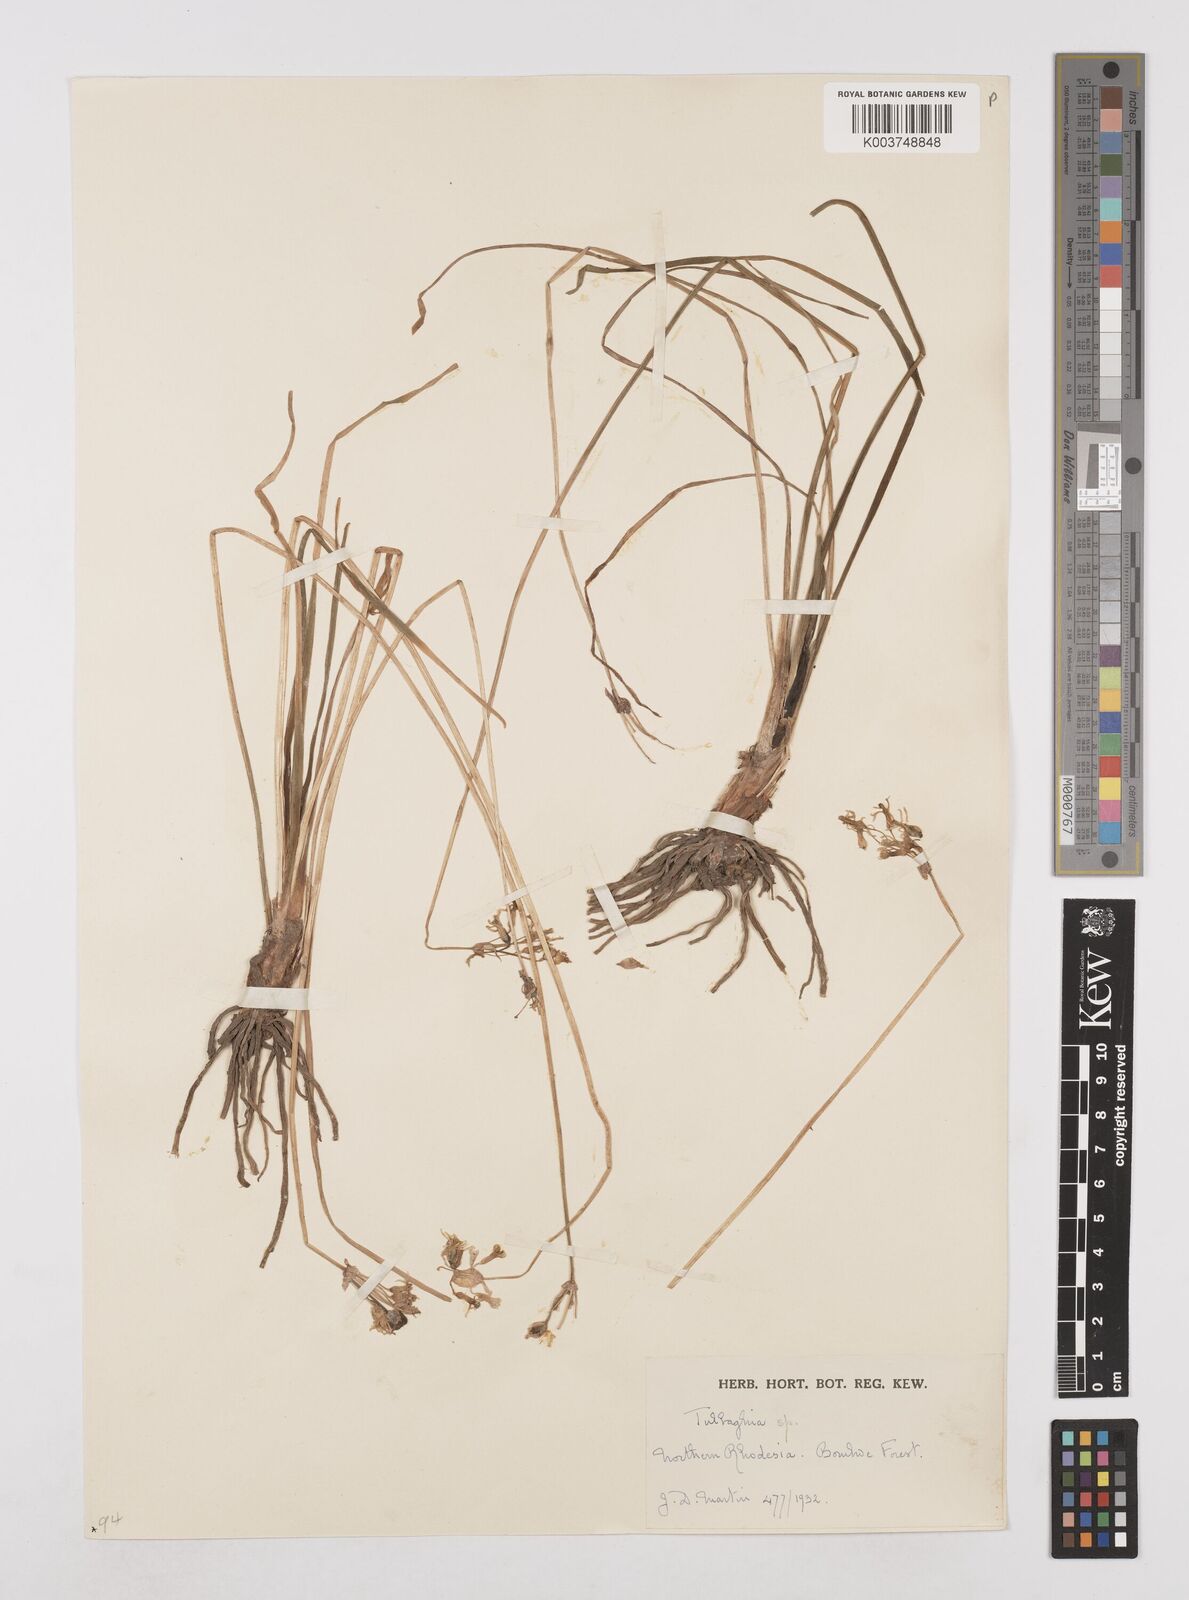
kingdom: Plantae
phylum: Tracheophyta
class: Liliopsida
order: Asparagales
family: Amaryllidaceae
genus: Tulbaghia
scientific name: Tulbaghia cameronii
